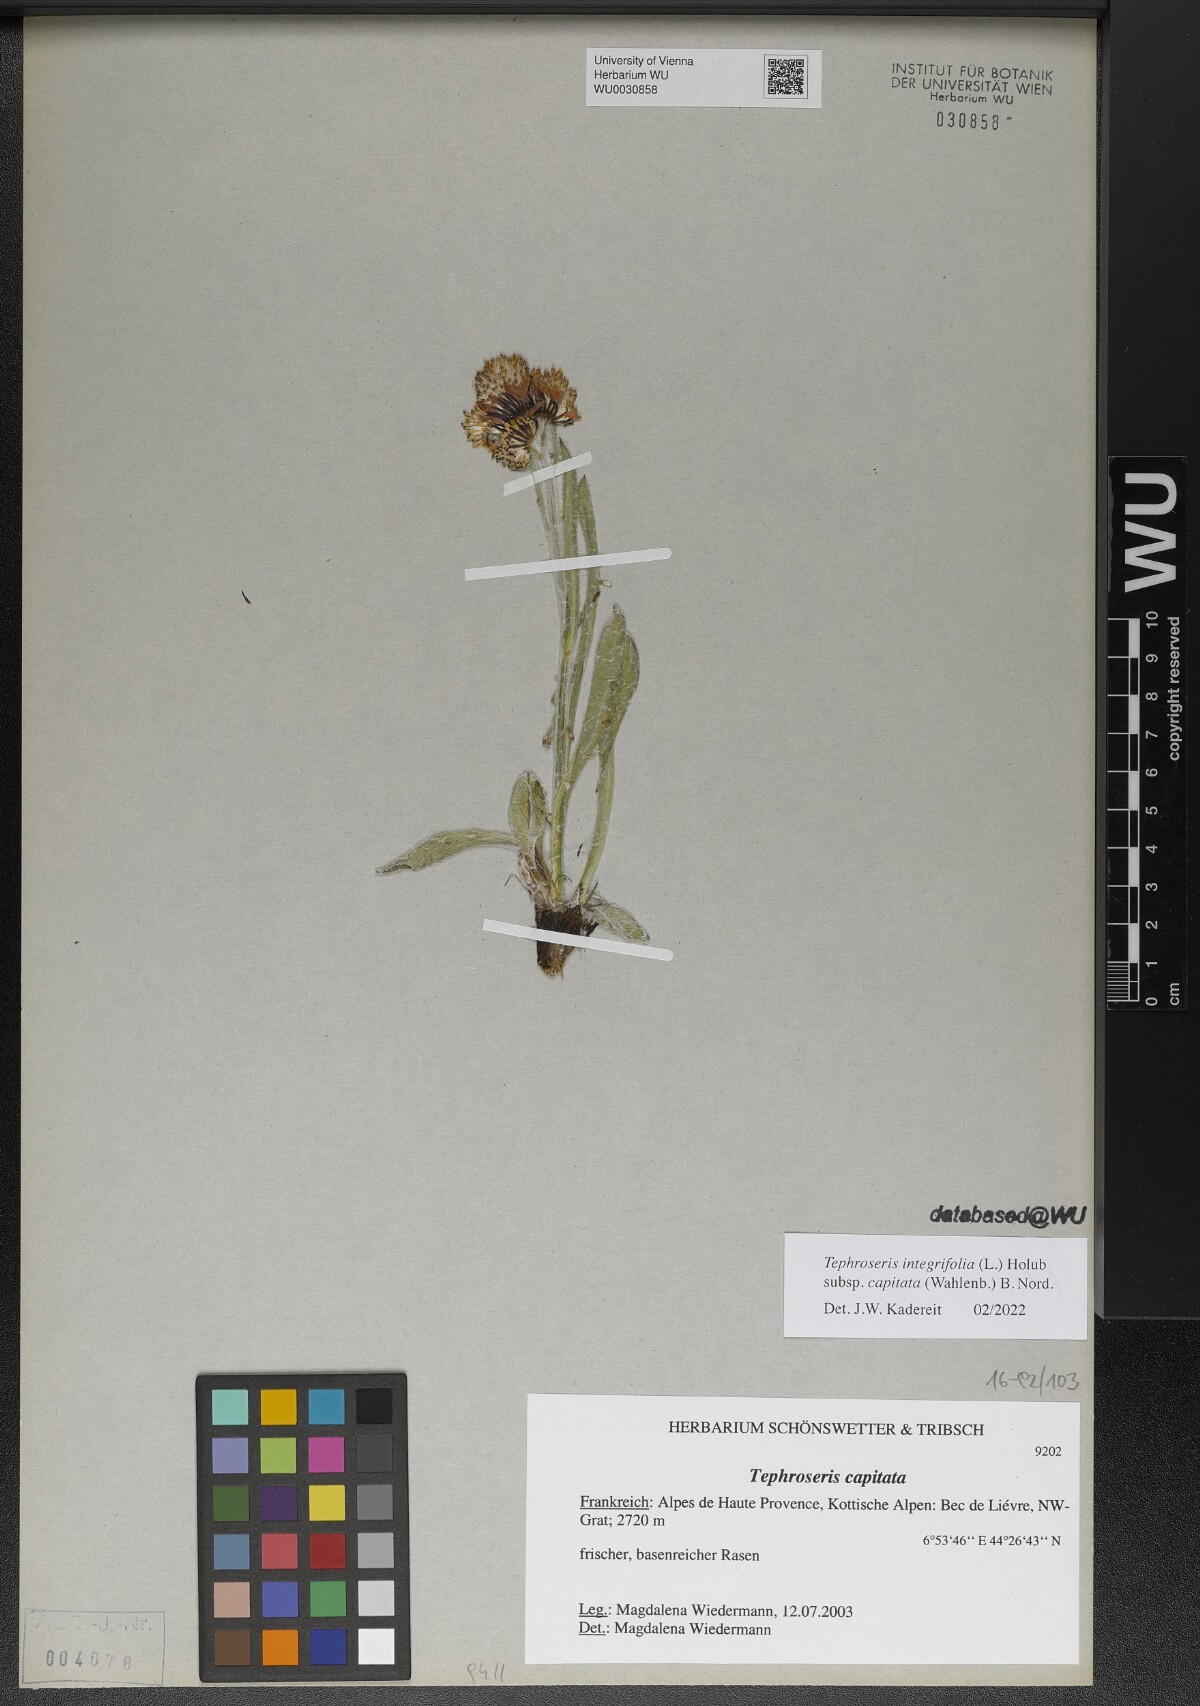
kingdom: Plantae
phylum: Tracheophyta
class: Magnoliopsida
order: Asterales
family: Asteraceae
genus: Tephroseris
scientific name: Tephroseris integrifolia
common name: Field fleawort
